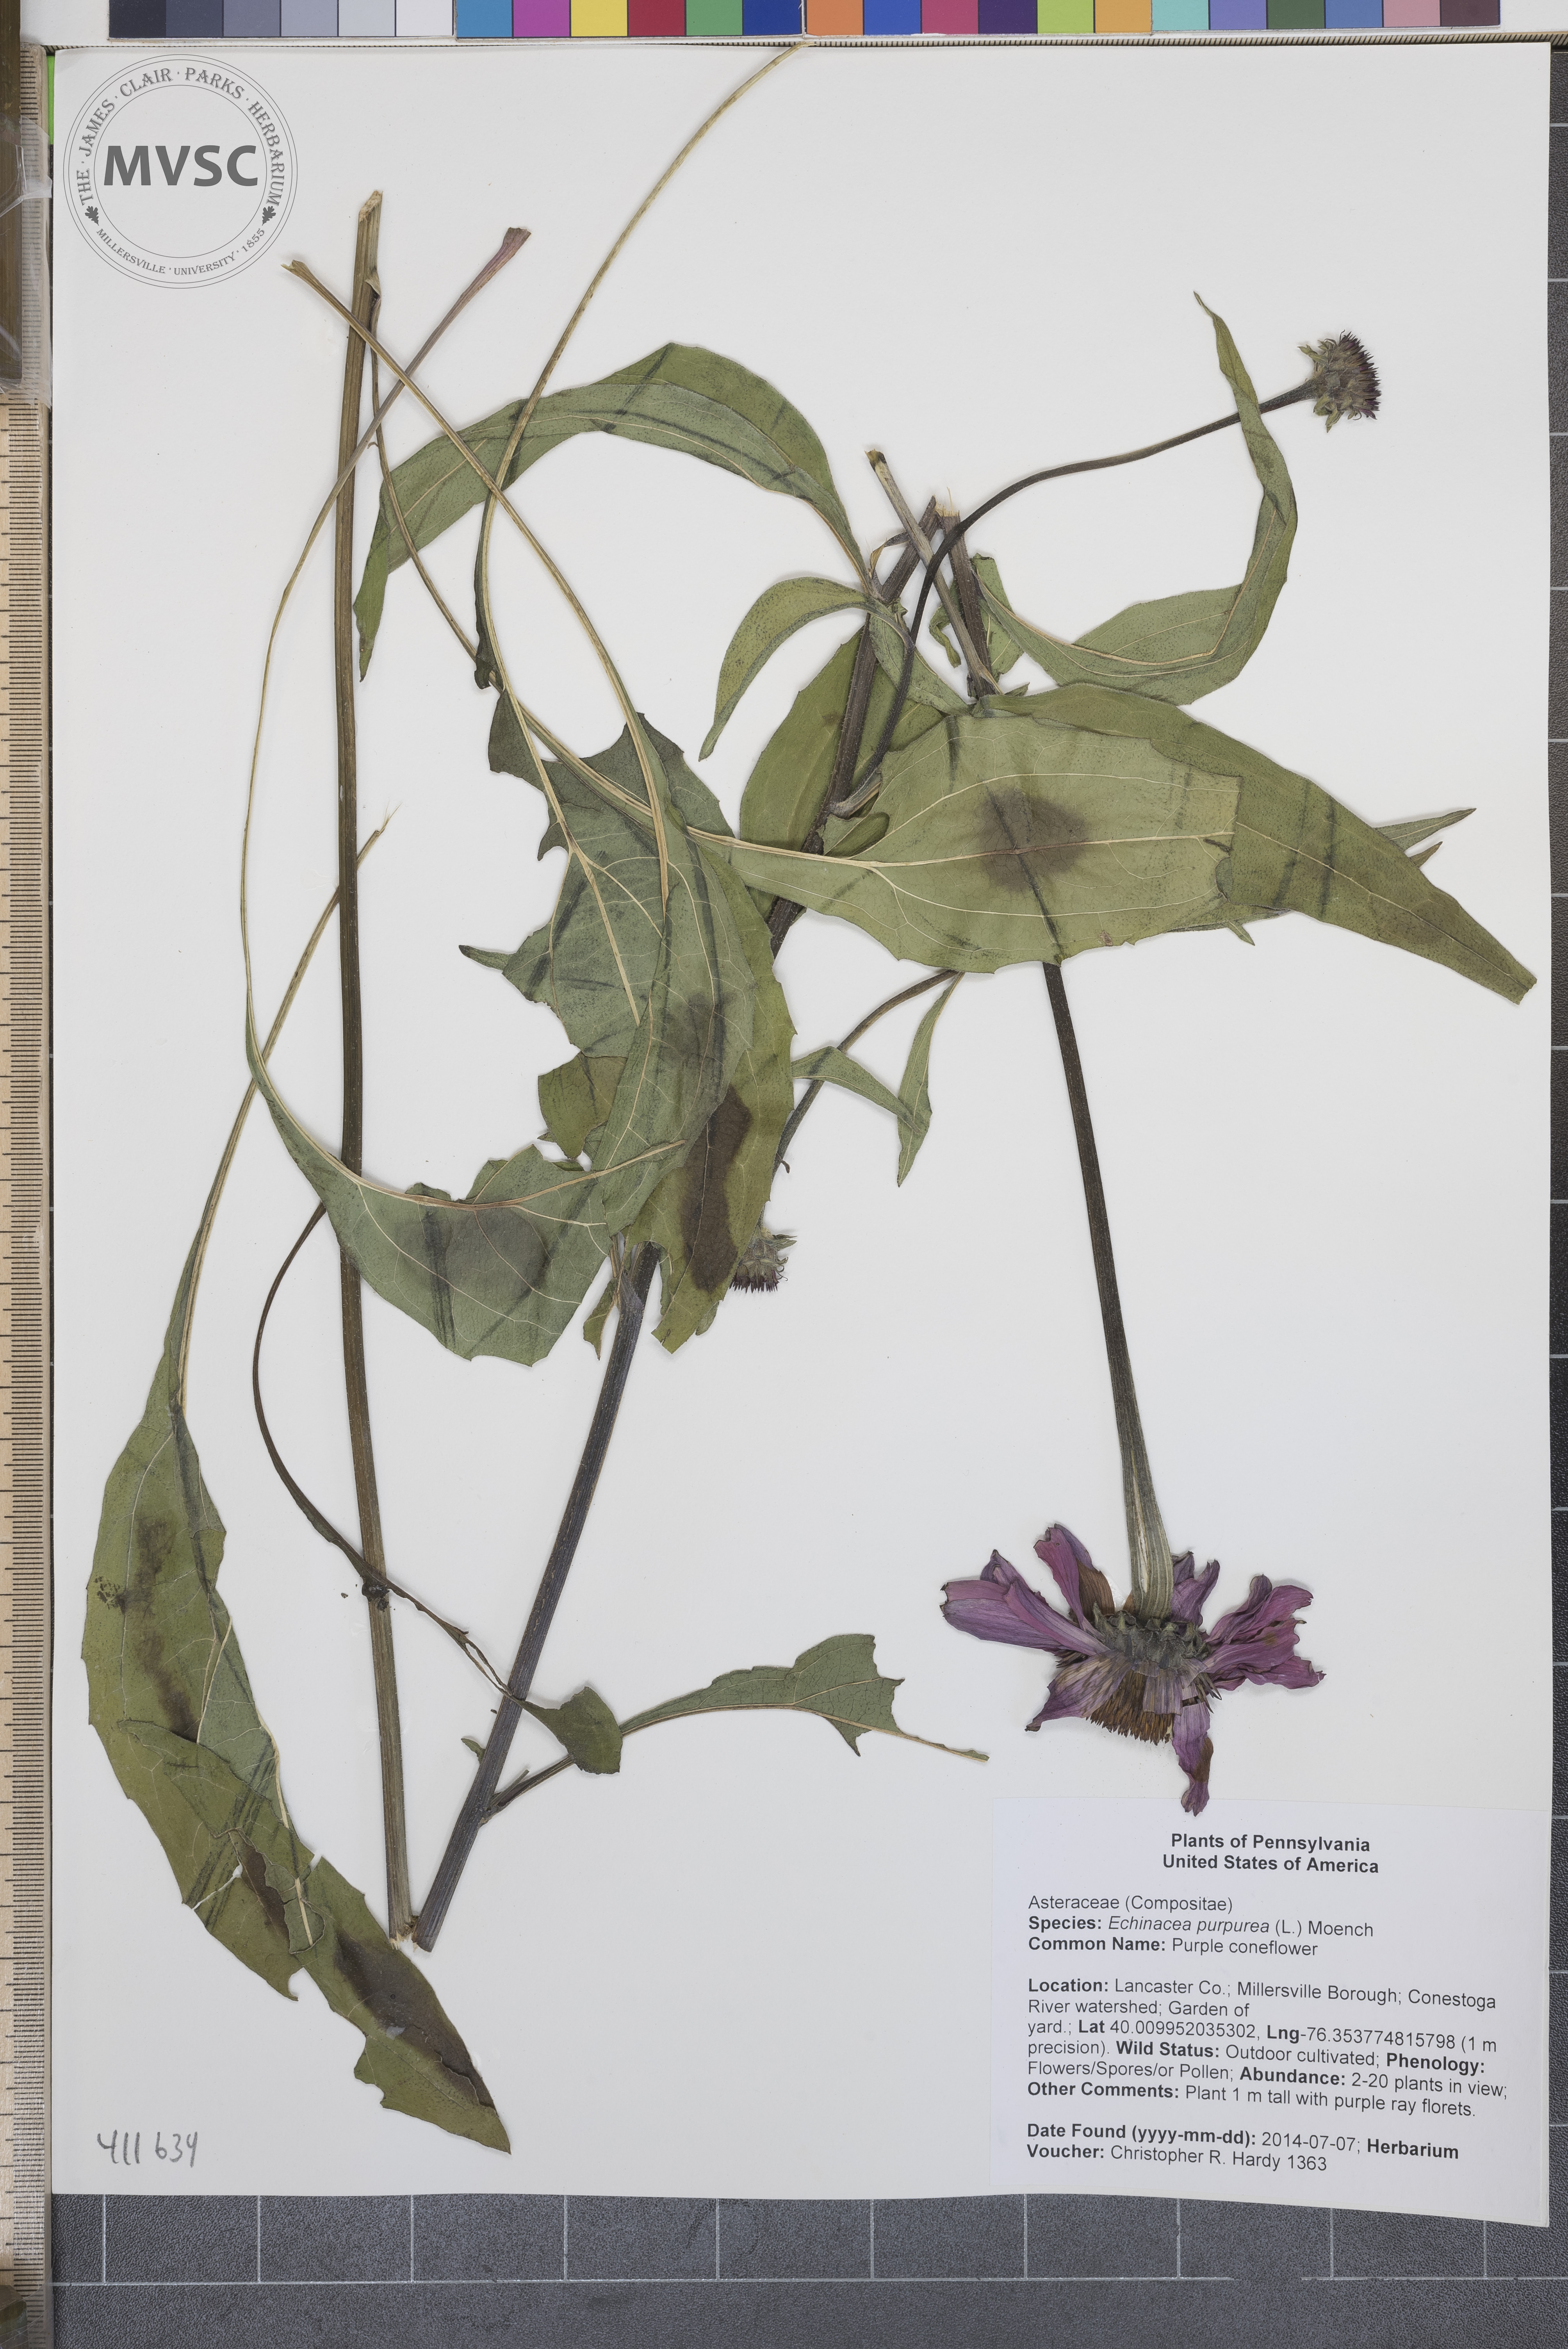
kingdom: Plantae
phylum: Tracheophyta
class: Magnoliopsida
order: Asterales
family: Asteraceae
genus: Echinacea
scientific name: Echinacea purpurea
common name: Purple coneflower
